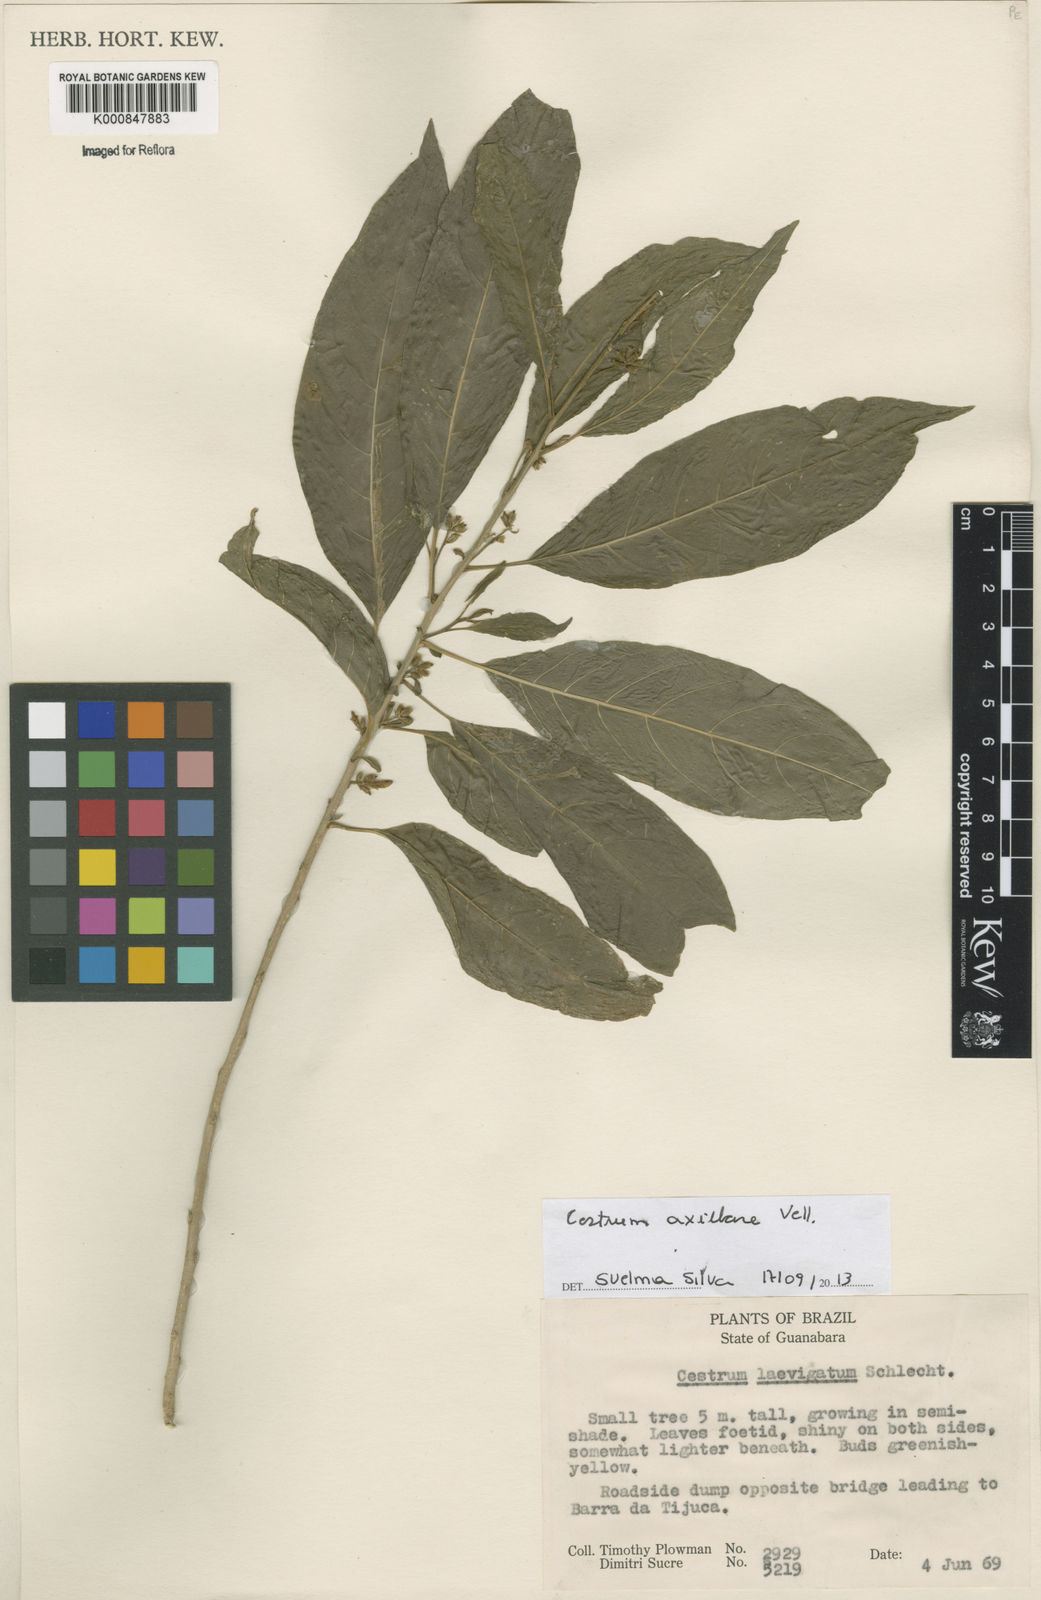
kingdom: Plantae
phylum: Tracheophyta
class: Magnoliopsida
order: Solanales
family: Solanaceae
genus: Cestrum
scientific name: Cestrum laevigatum
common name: Inkberry
